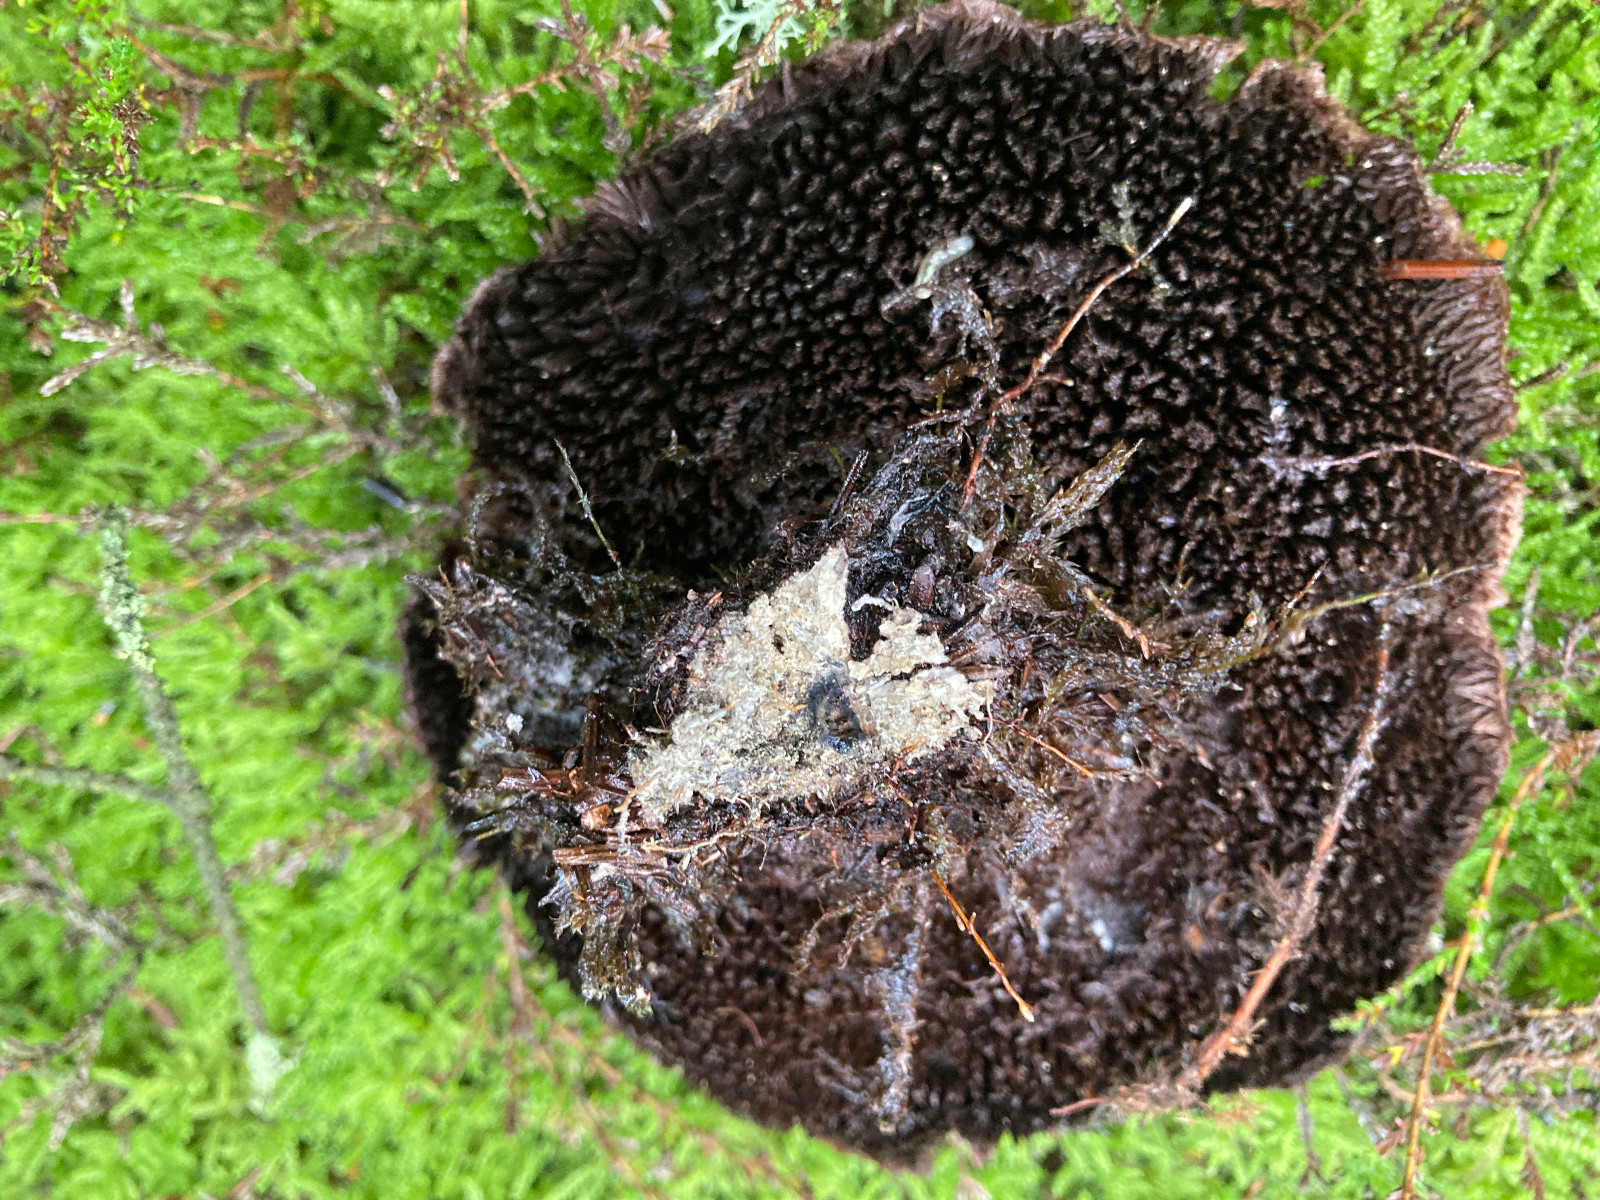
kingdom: Fungi
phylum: Basidiomycota
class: Agaricomycetes
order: Thelephorales
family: Bankeraceae
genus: Hydnellum
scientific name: Hydnellum ferrugineum
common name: rust-korkpigsvamp
